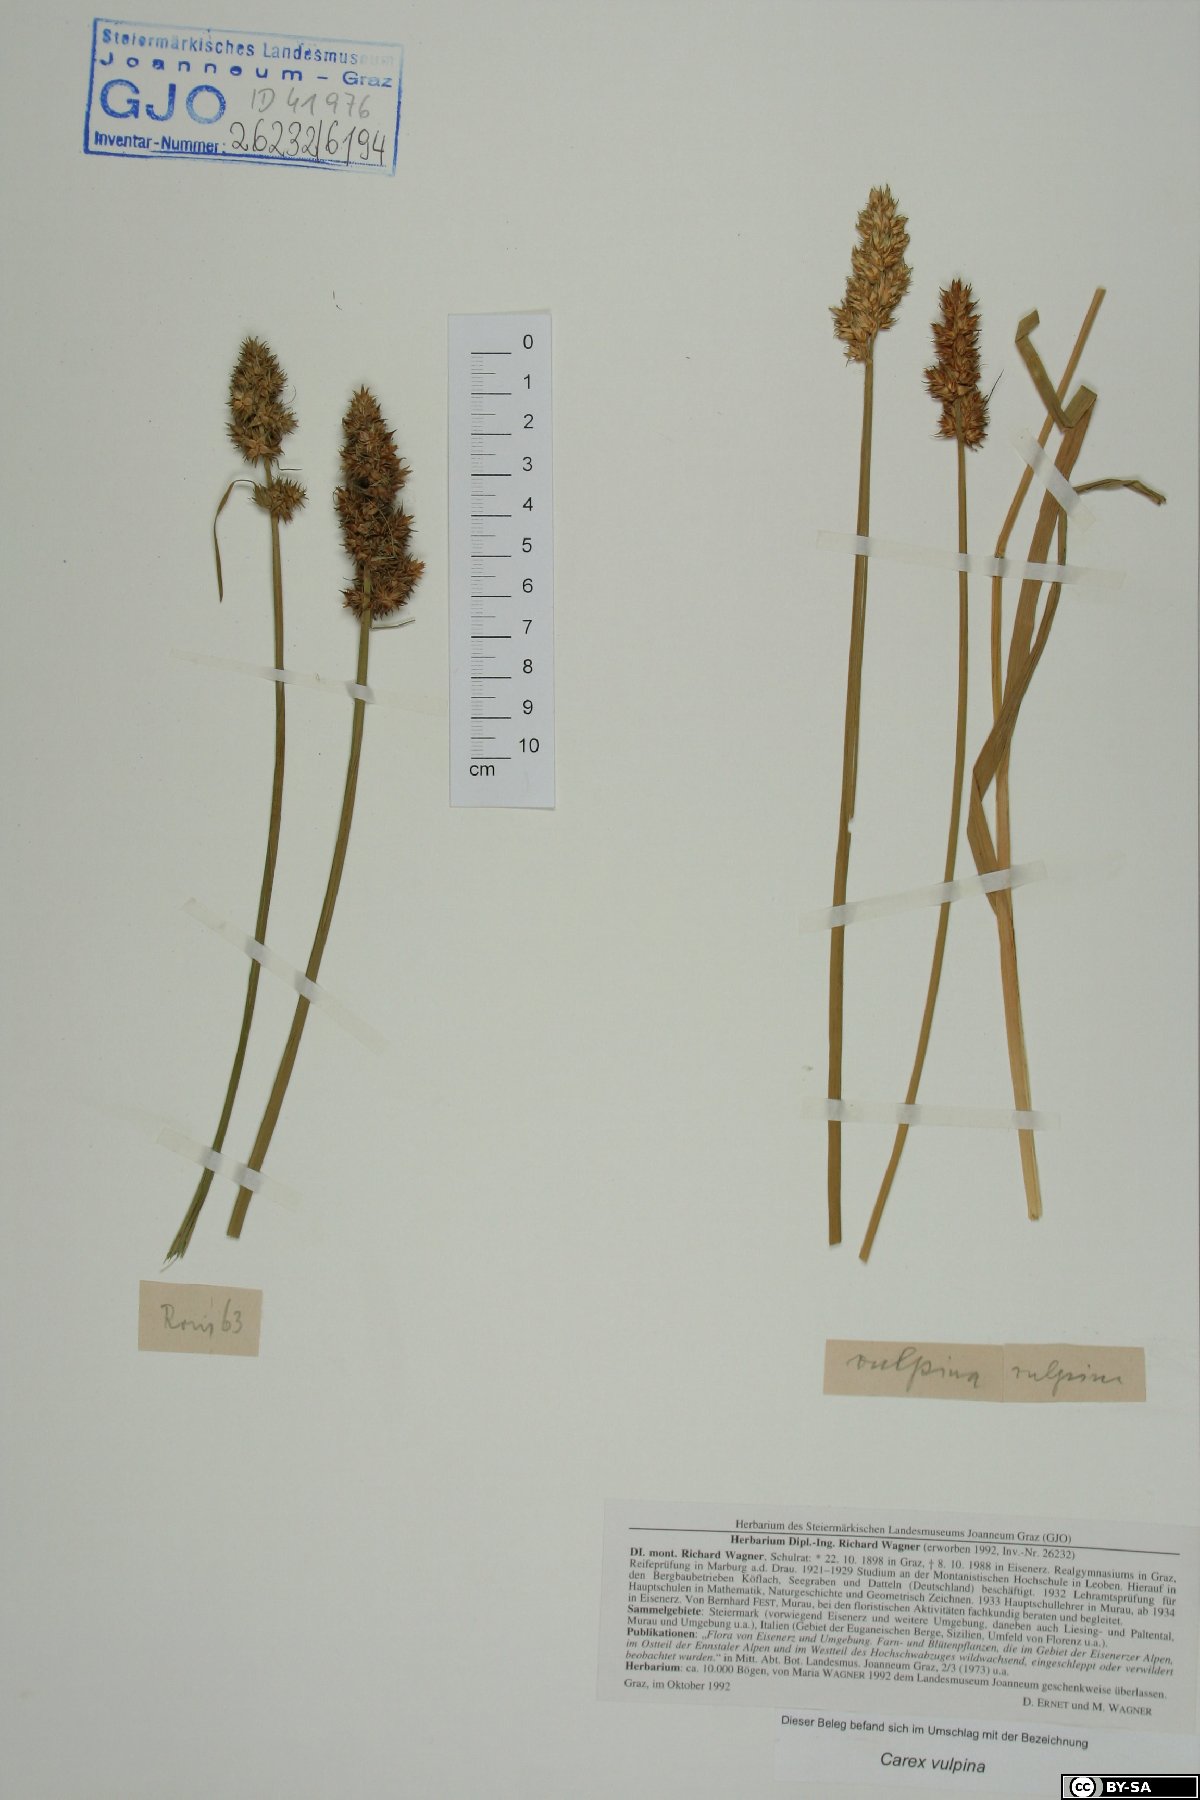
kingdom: Plantae
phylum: Tracheophyta
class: Liliopsida
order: Poales
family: Cyperaceae
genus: Carex
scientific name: Carex vulpina
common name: True fox-sedge
